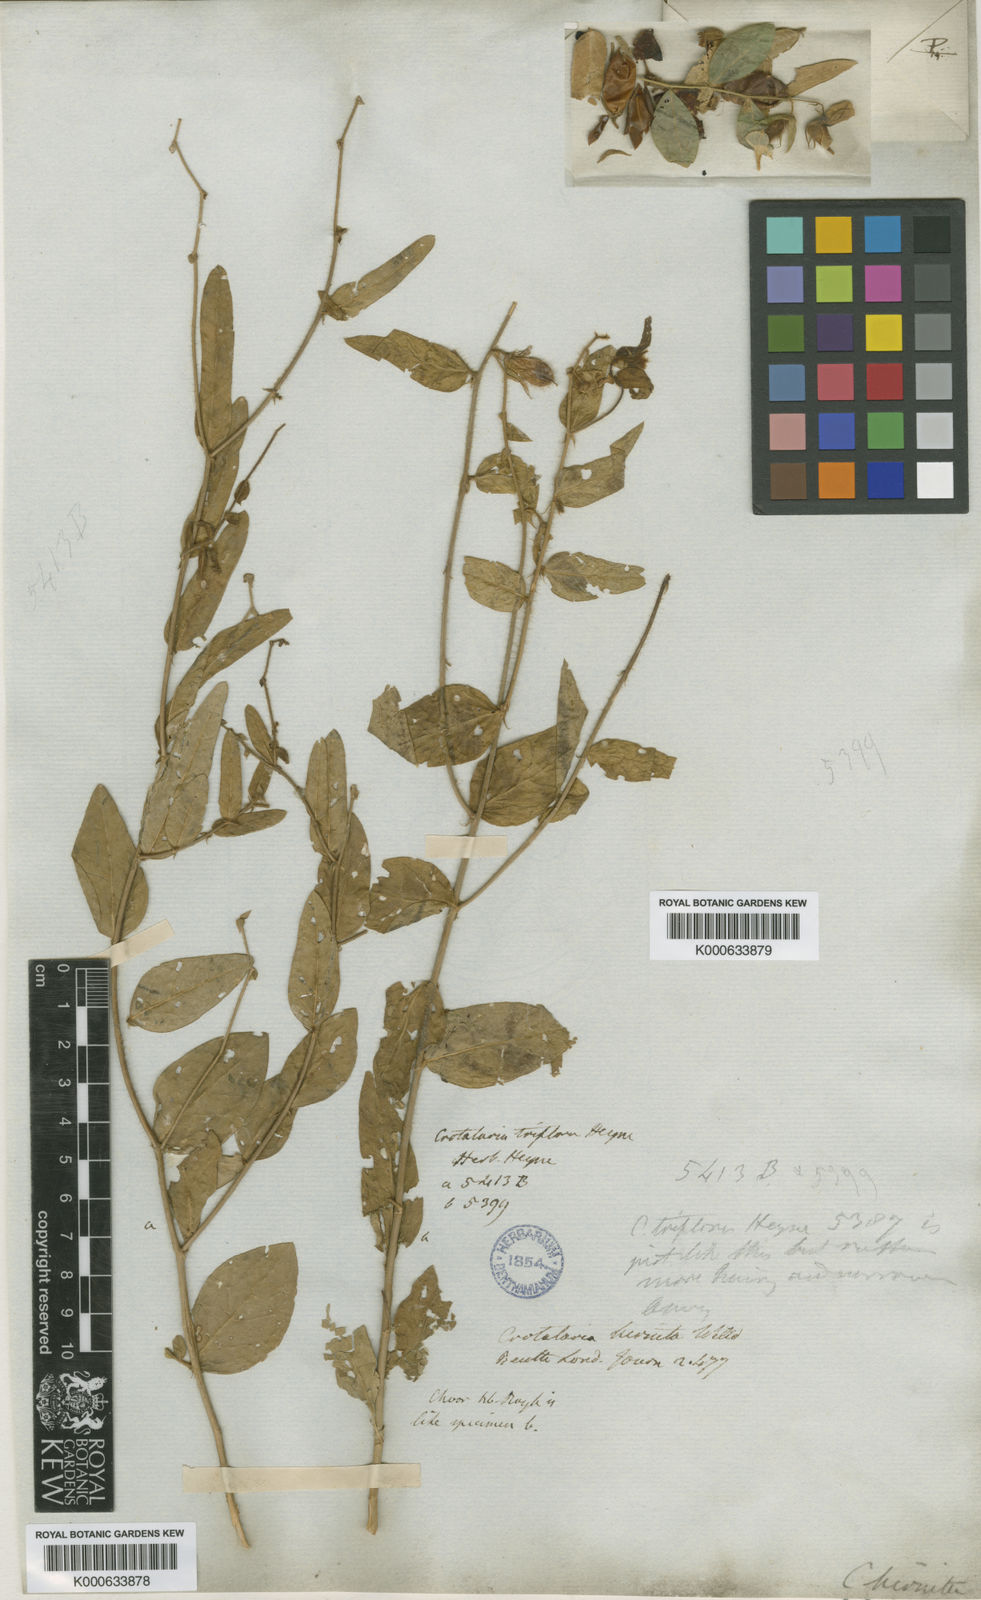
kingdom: Plantae
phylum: Tracheophyta
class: Magnoliopsida
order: Fabales
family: Fabaceae
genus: Crotalaria
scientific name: Crotalaria hirsuta
